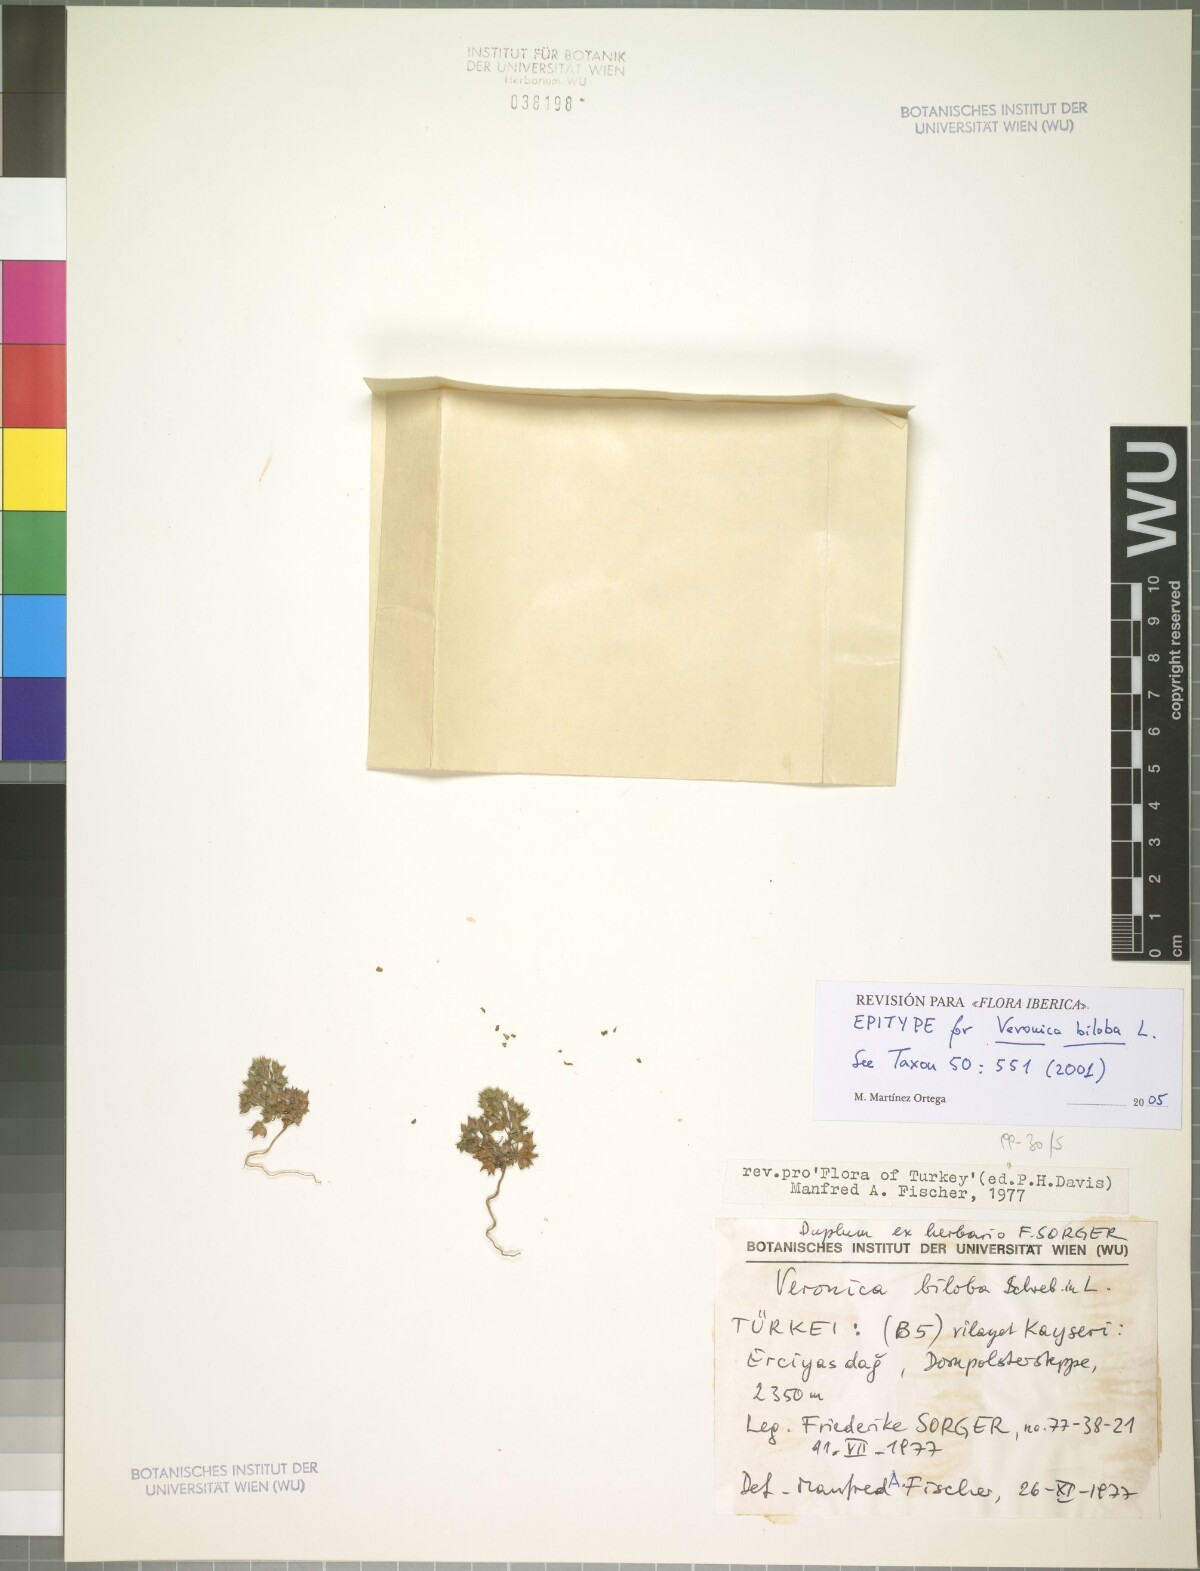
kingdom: Plantae
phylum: Tracheophyta
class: Magnoliopsida
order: Lamiales
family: Plantaginaceae
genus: Veronica
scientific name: Veronica biloba
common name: Twolobe speedwell
